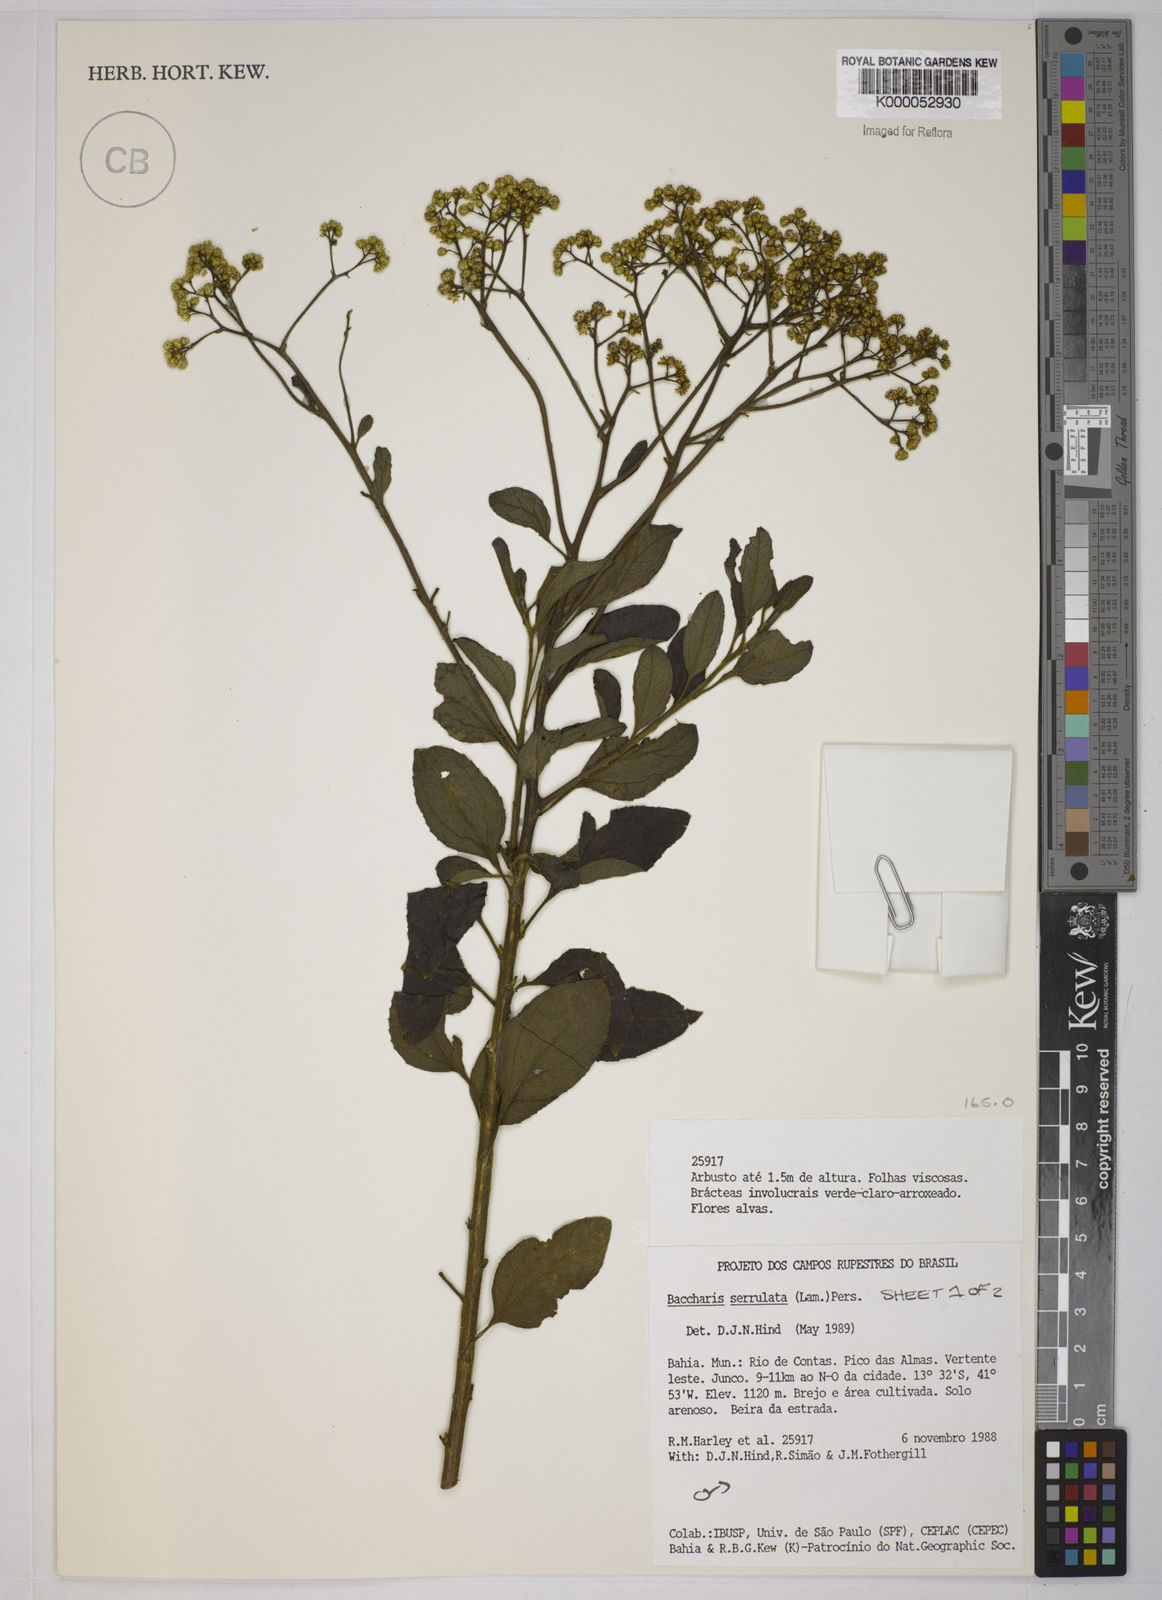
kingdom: Plantae
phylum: Tracheophyta
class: Magnoliopsida
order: Asterales
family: Asteraceae
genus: Baccharis
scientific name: Baccharis serrulata
